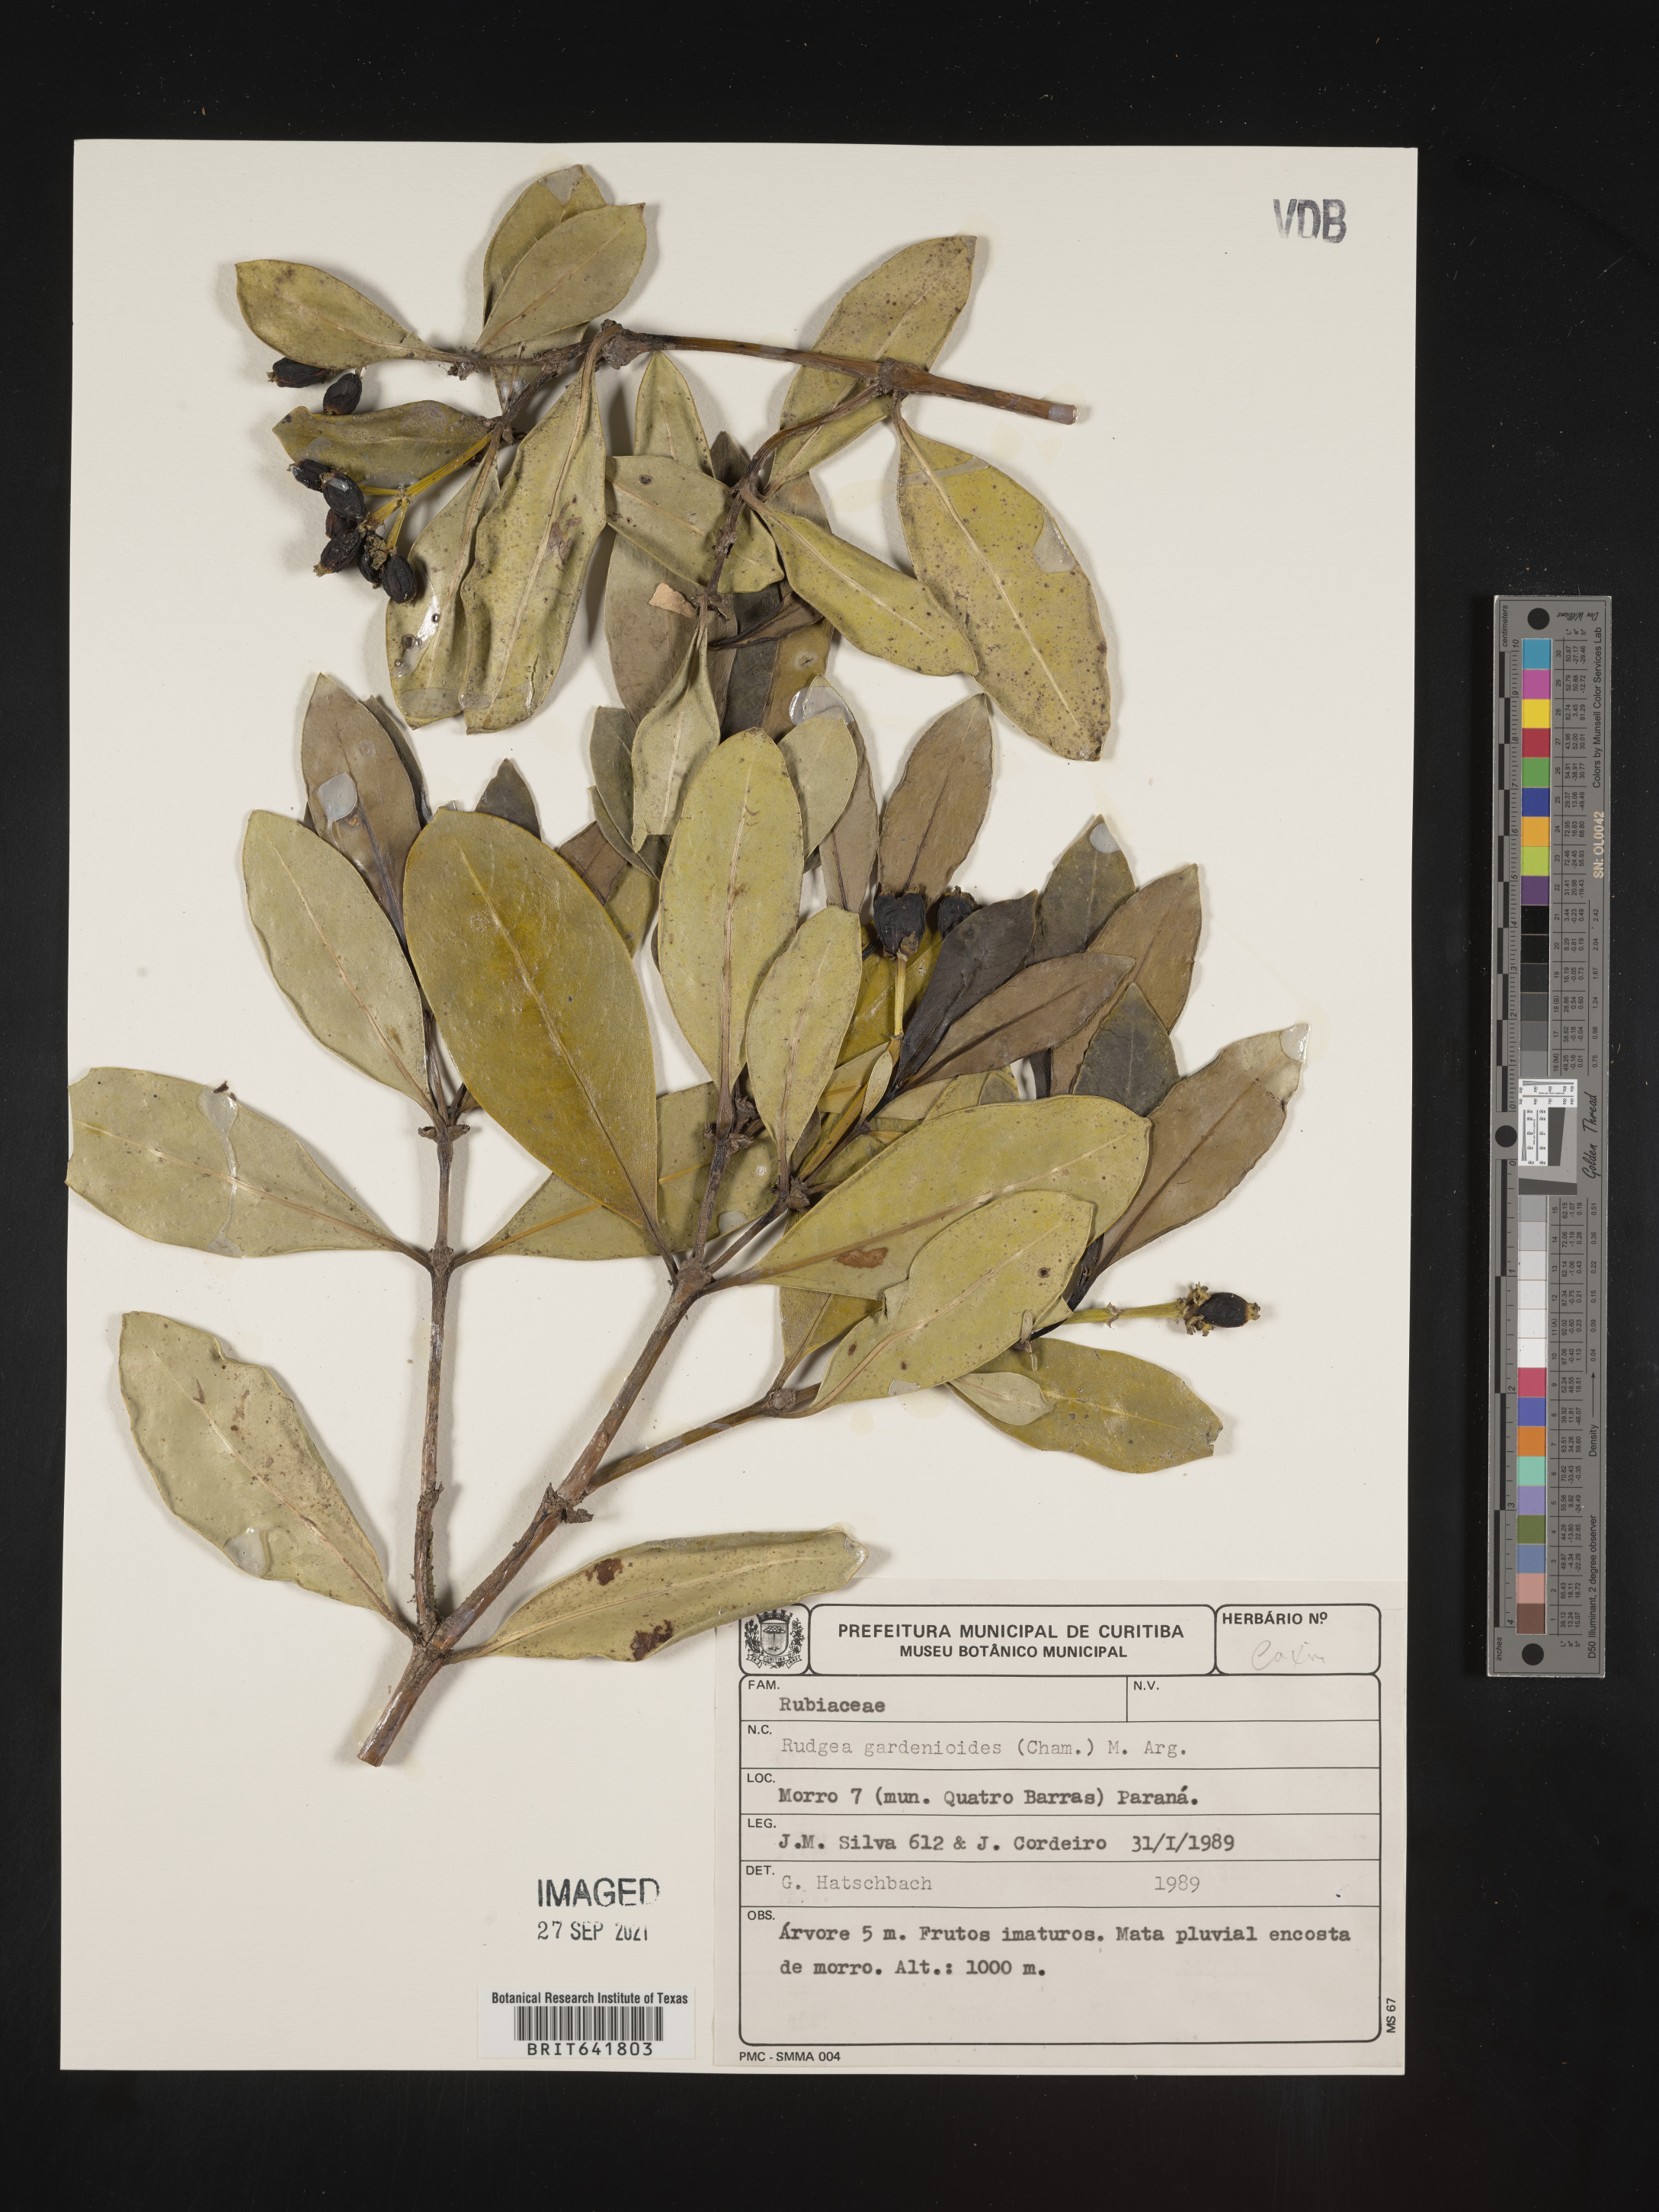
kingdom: Plantae
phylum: Tracheophyta
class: Magnoliopsida
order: Gentianales
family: Rubiaceae
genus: Rudgea
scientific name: Rudgea
